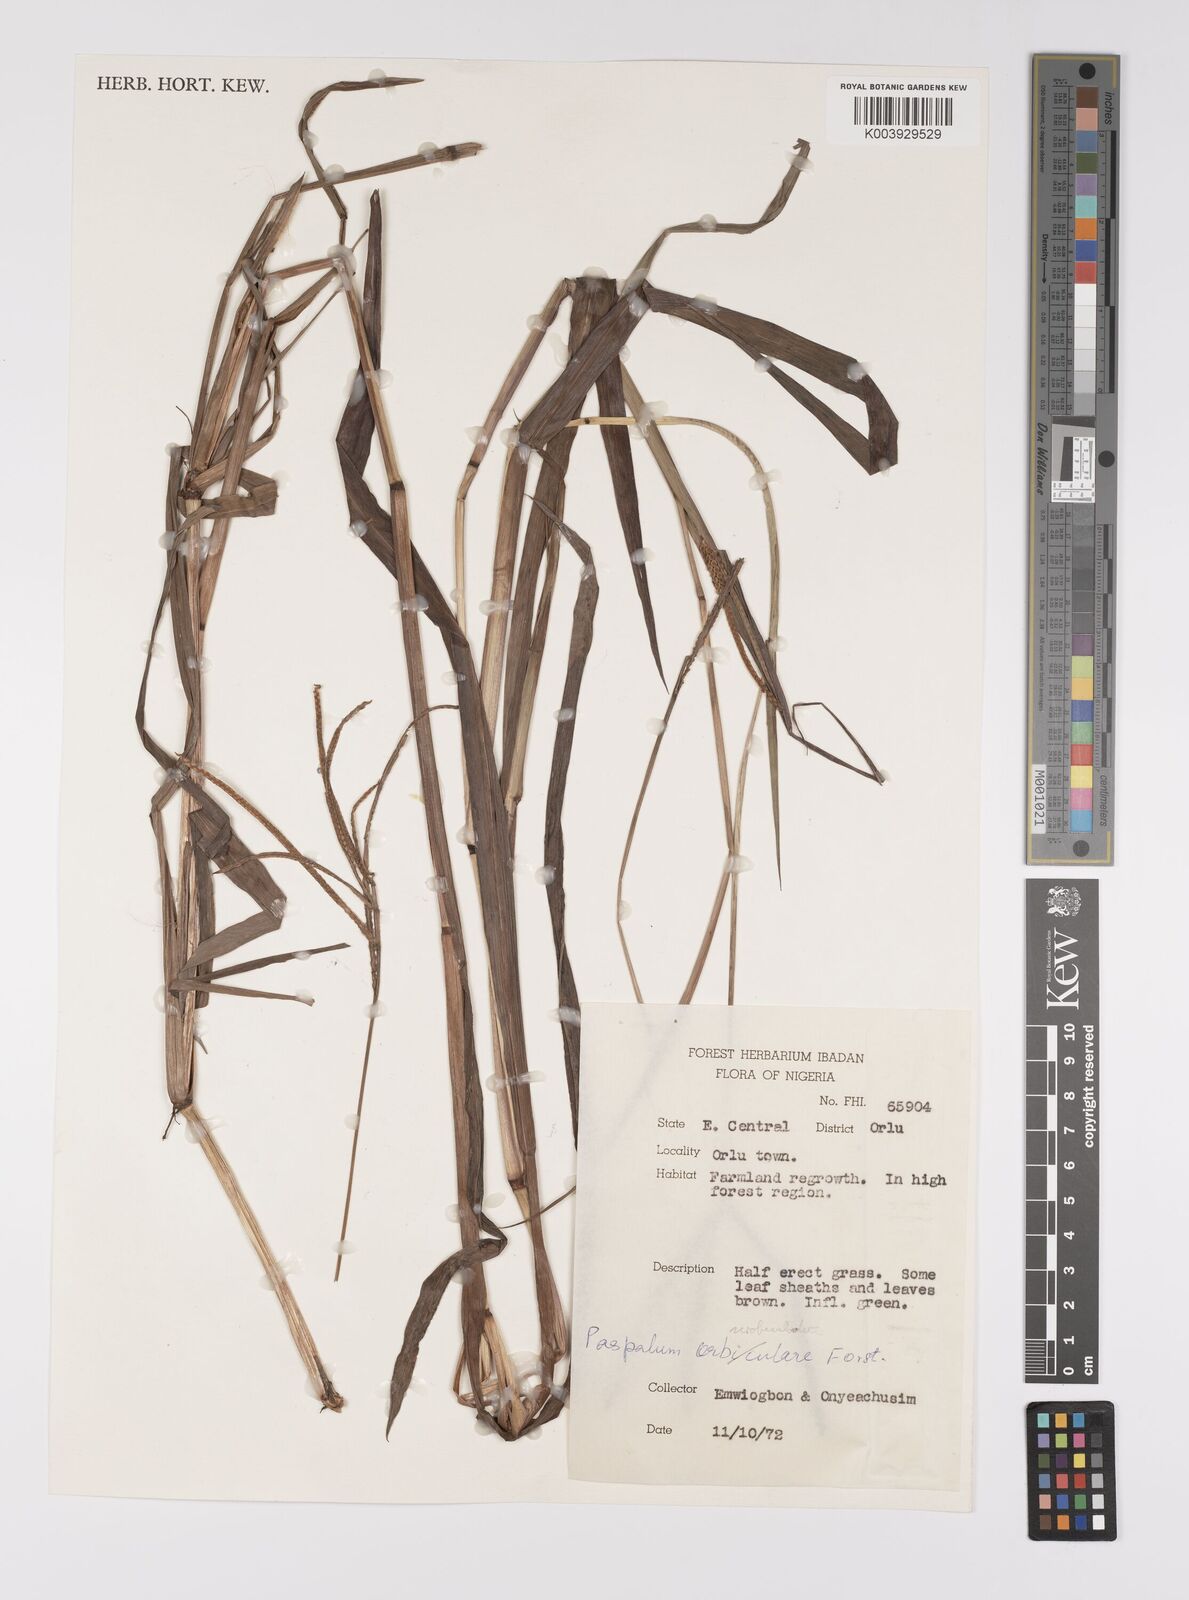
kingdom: Plantae
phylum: Tracheophyta
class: Liliopsida
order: Poales
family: Poaceae
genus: Paspalum
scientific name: Paspalum scrobiculatum
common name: Kodo millet
